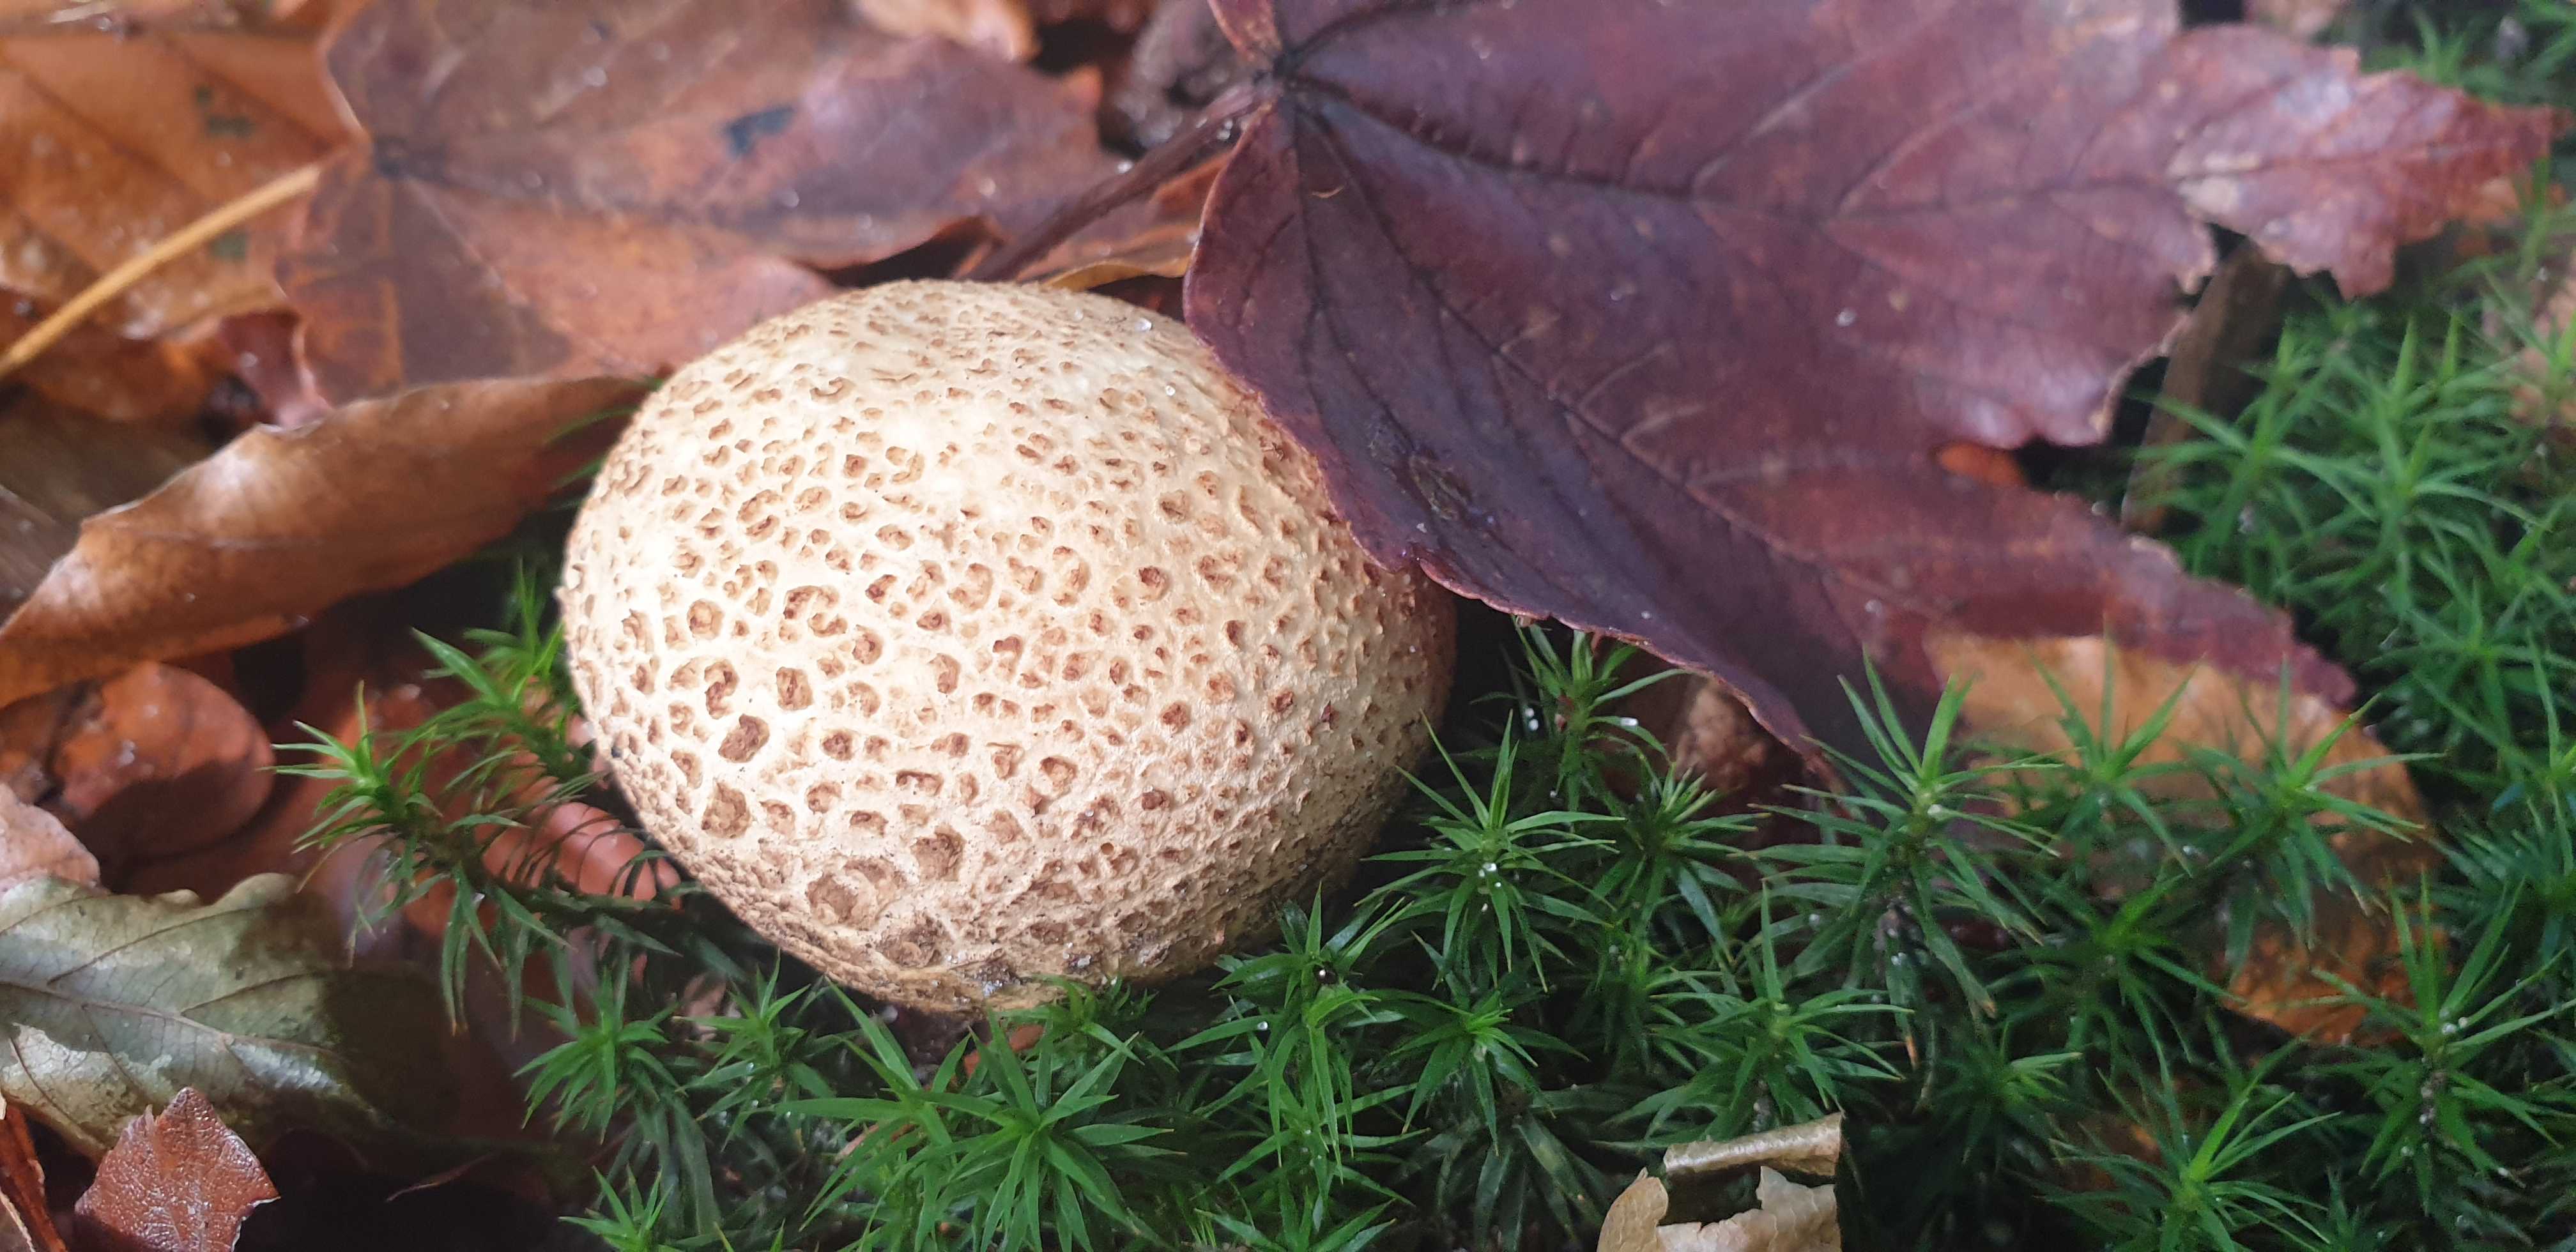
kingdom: Fungi
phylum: Basidiomycota
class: Agaricomycetes
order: Boletales
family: Sclerodermataceae
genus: Scleroderma
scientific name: Scleroderma citrinum
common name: almindelig bruskbold
